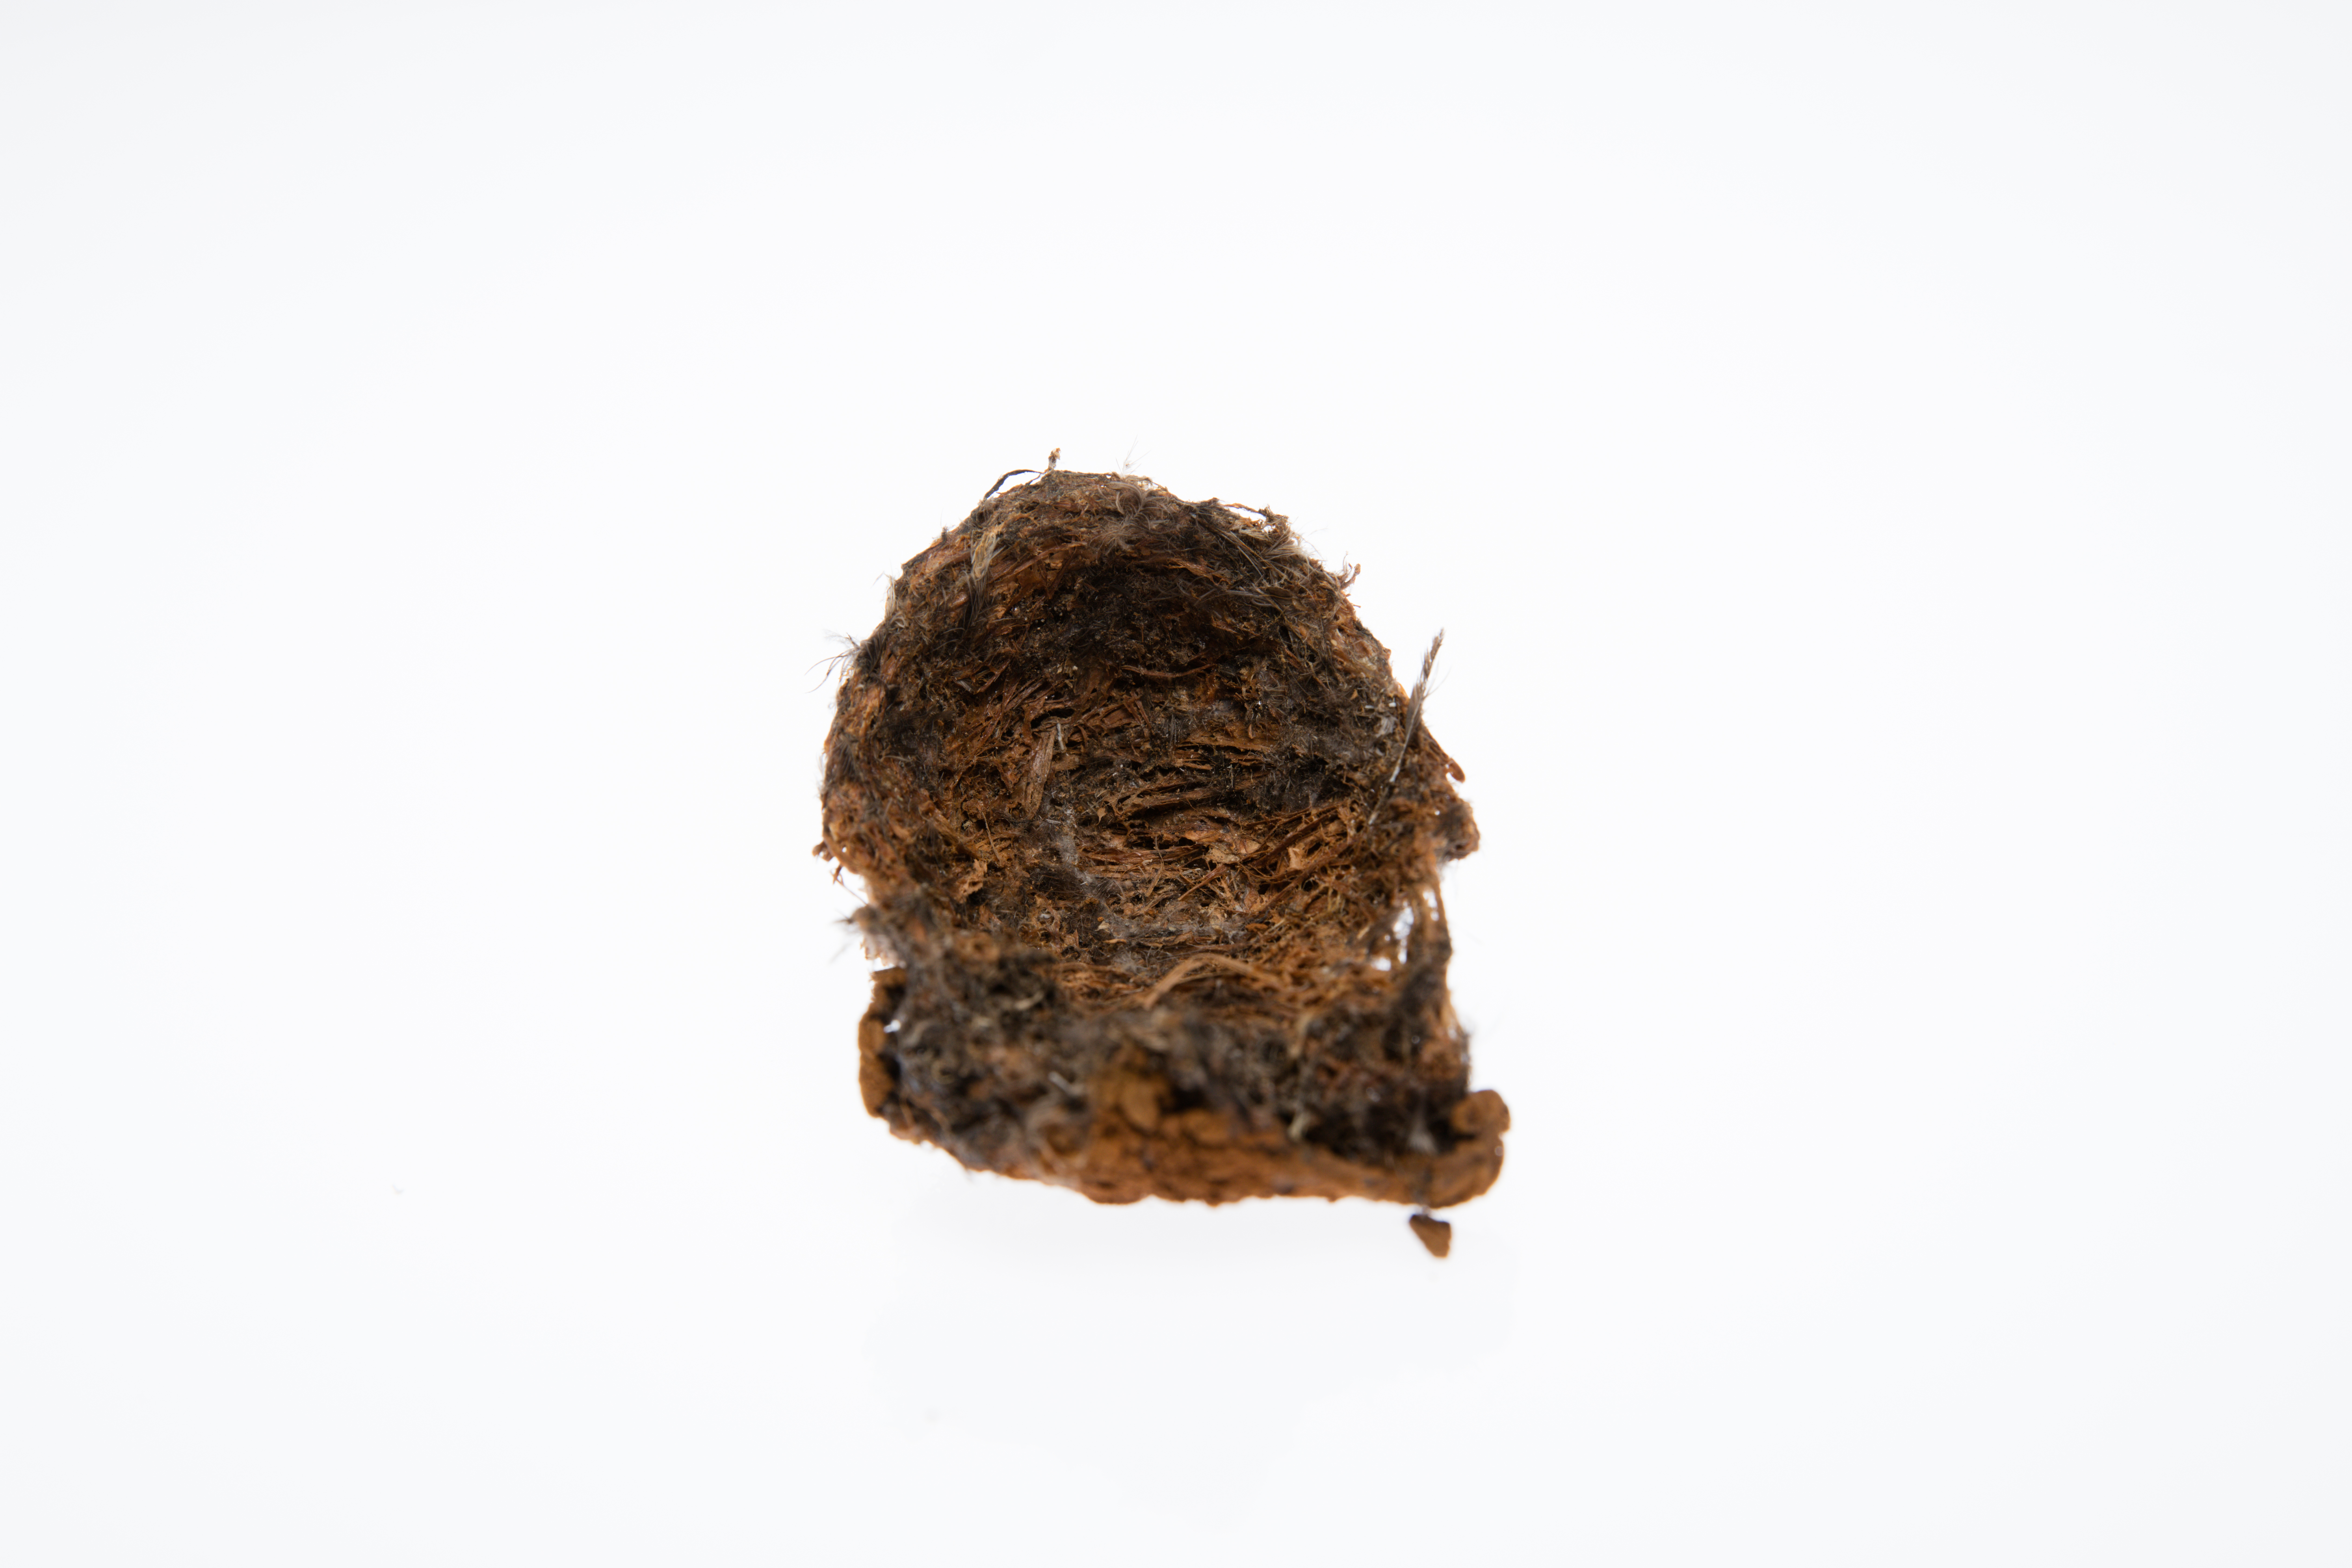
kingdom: Animalia
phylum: Chordata
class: Aves
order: Apodiformes
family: Apodidae
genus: Collocalia
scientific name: Collocalia
